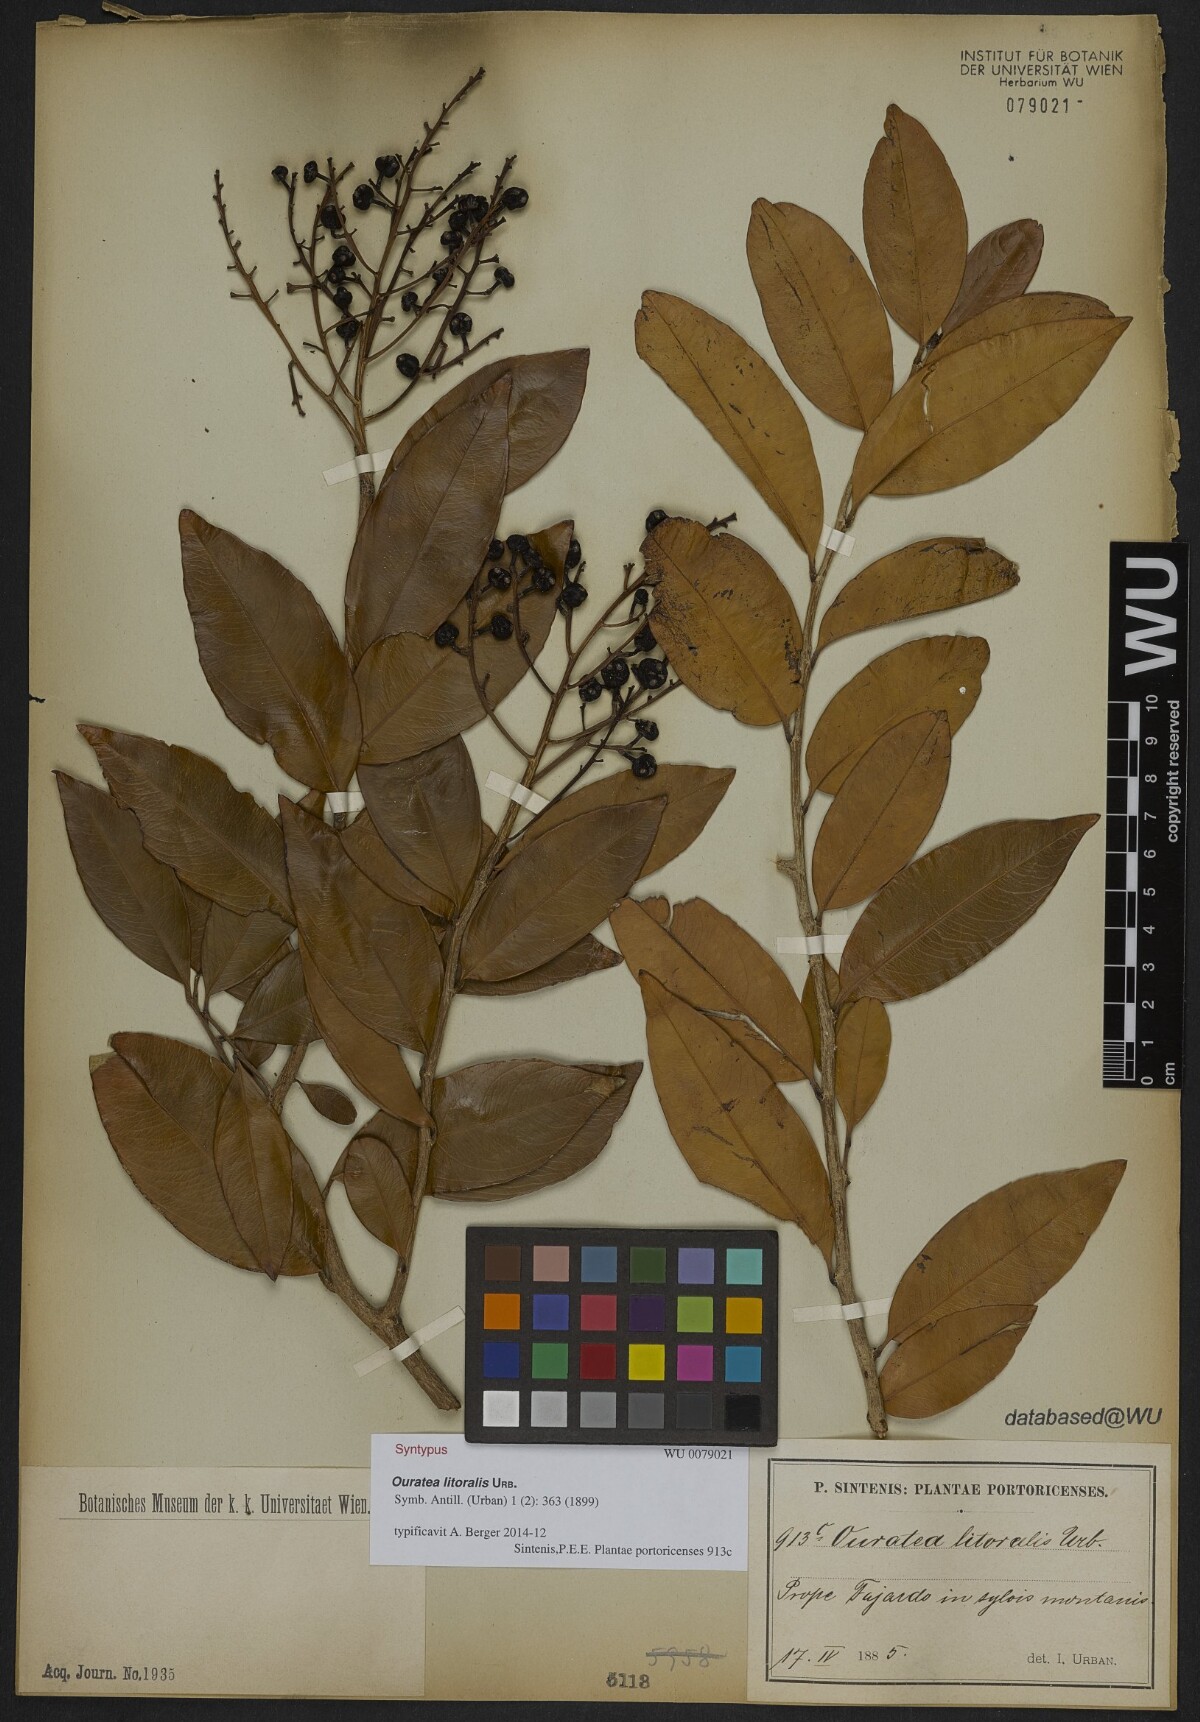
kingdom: Plantae
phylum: Tracheophyta
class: Magnoliopsida
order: Malpighiales
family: Ochnaceae
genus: Ouratea
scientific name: Ouratea litoralis
